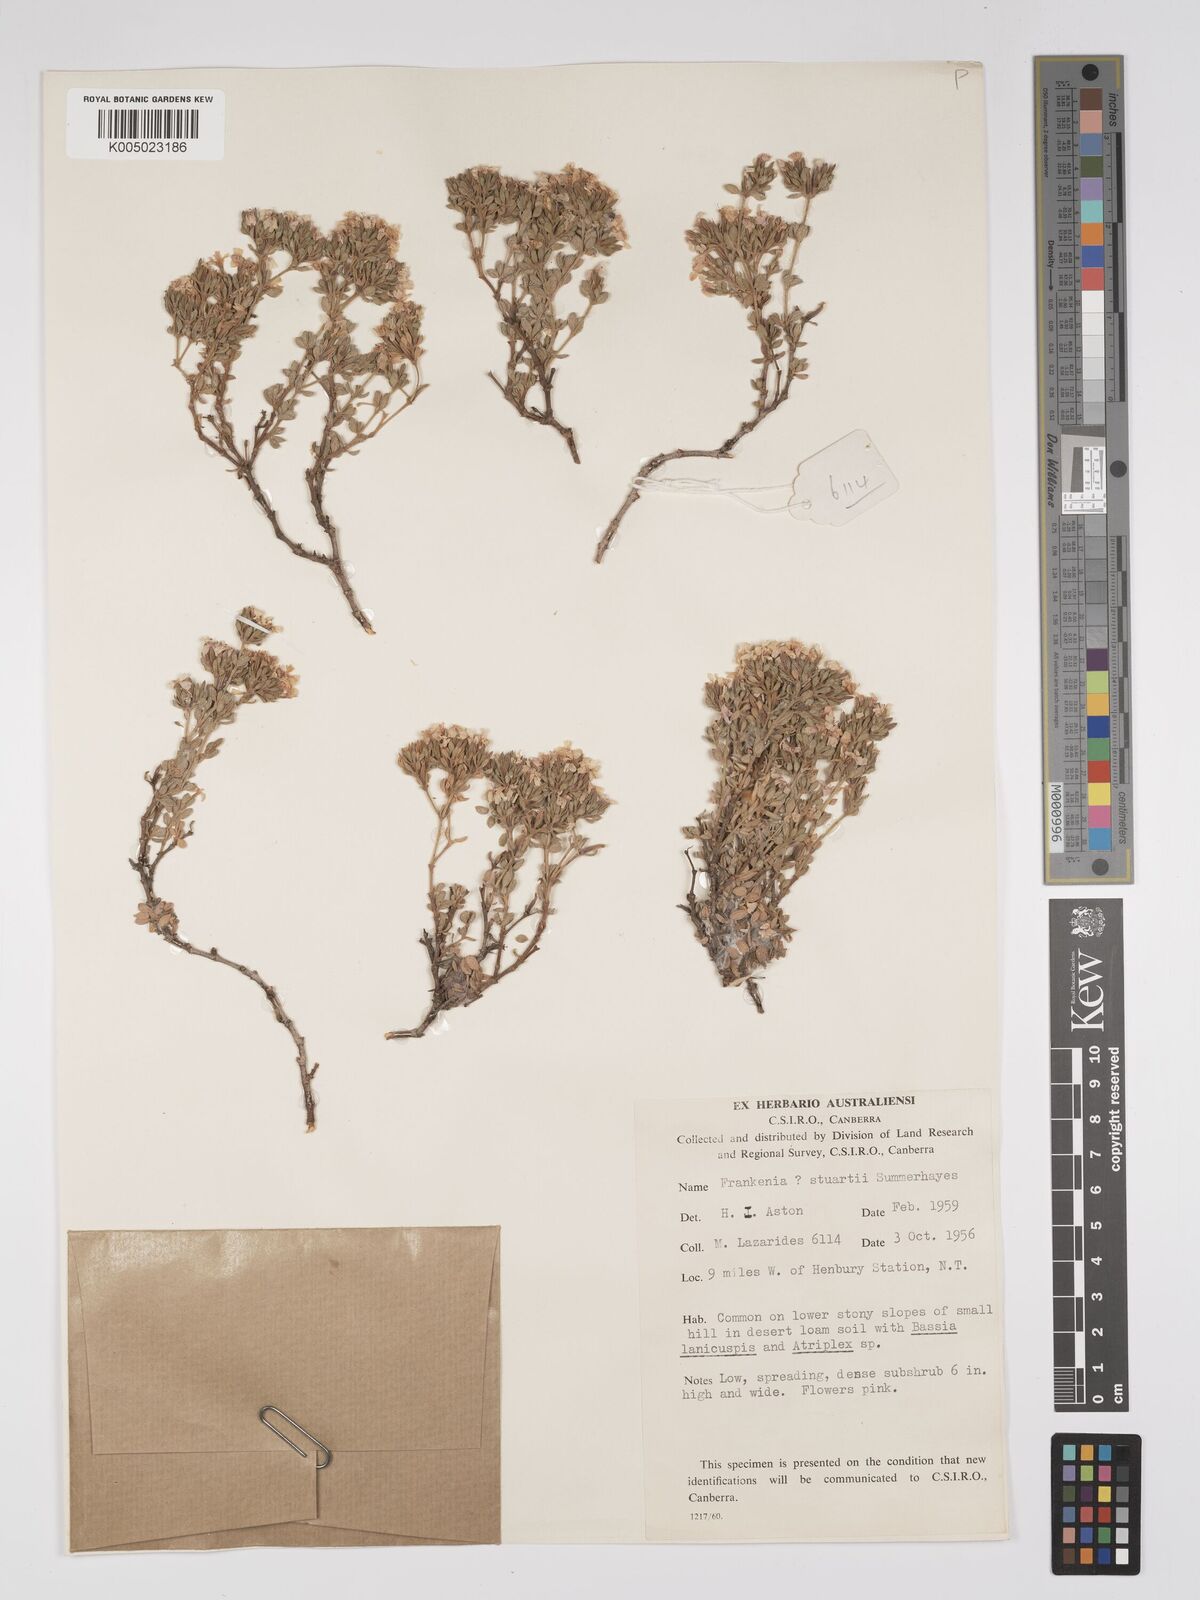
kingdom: Plantae
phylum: Tracheophyta
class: Magnoliopsida
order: Caryophyllales
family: Frankeniaceae
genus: Frankenia
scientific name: Frankenia stuartii
